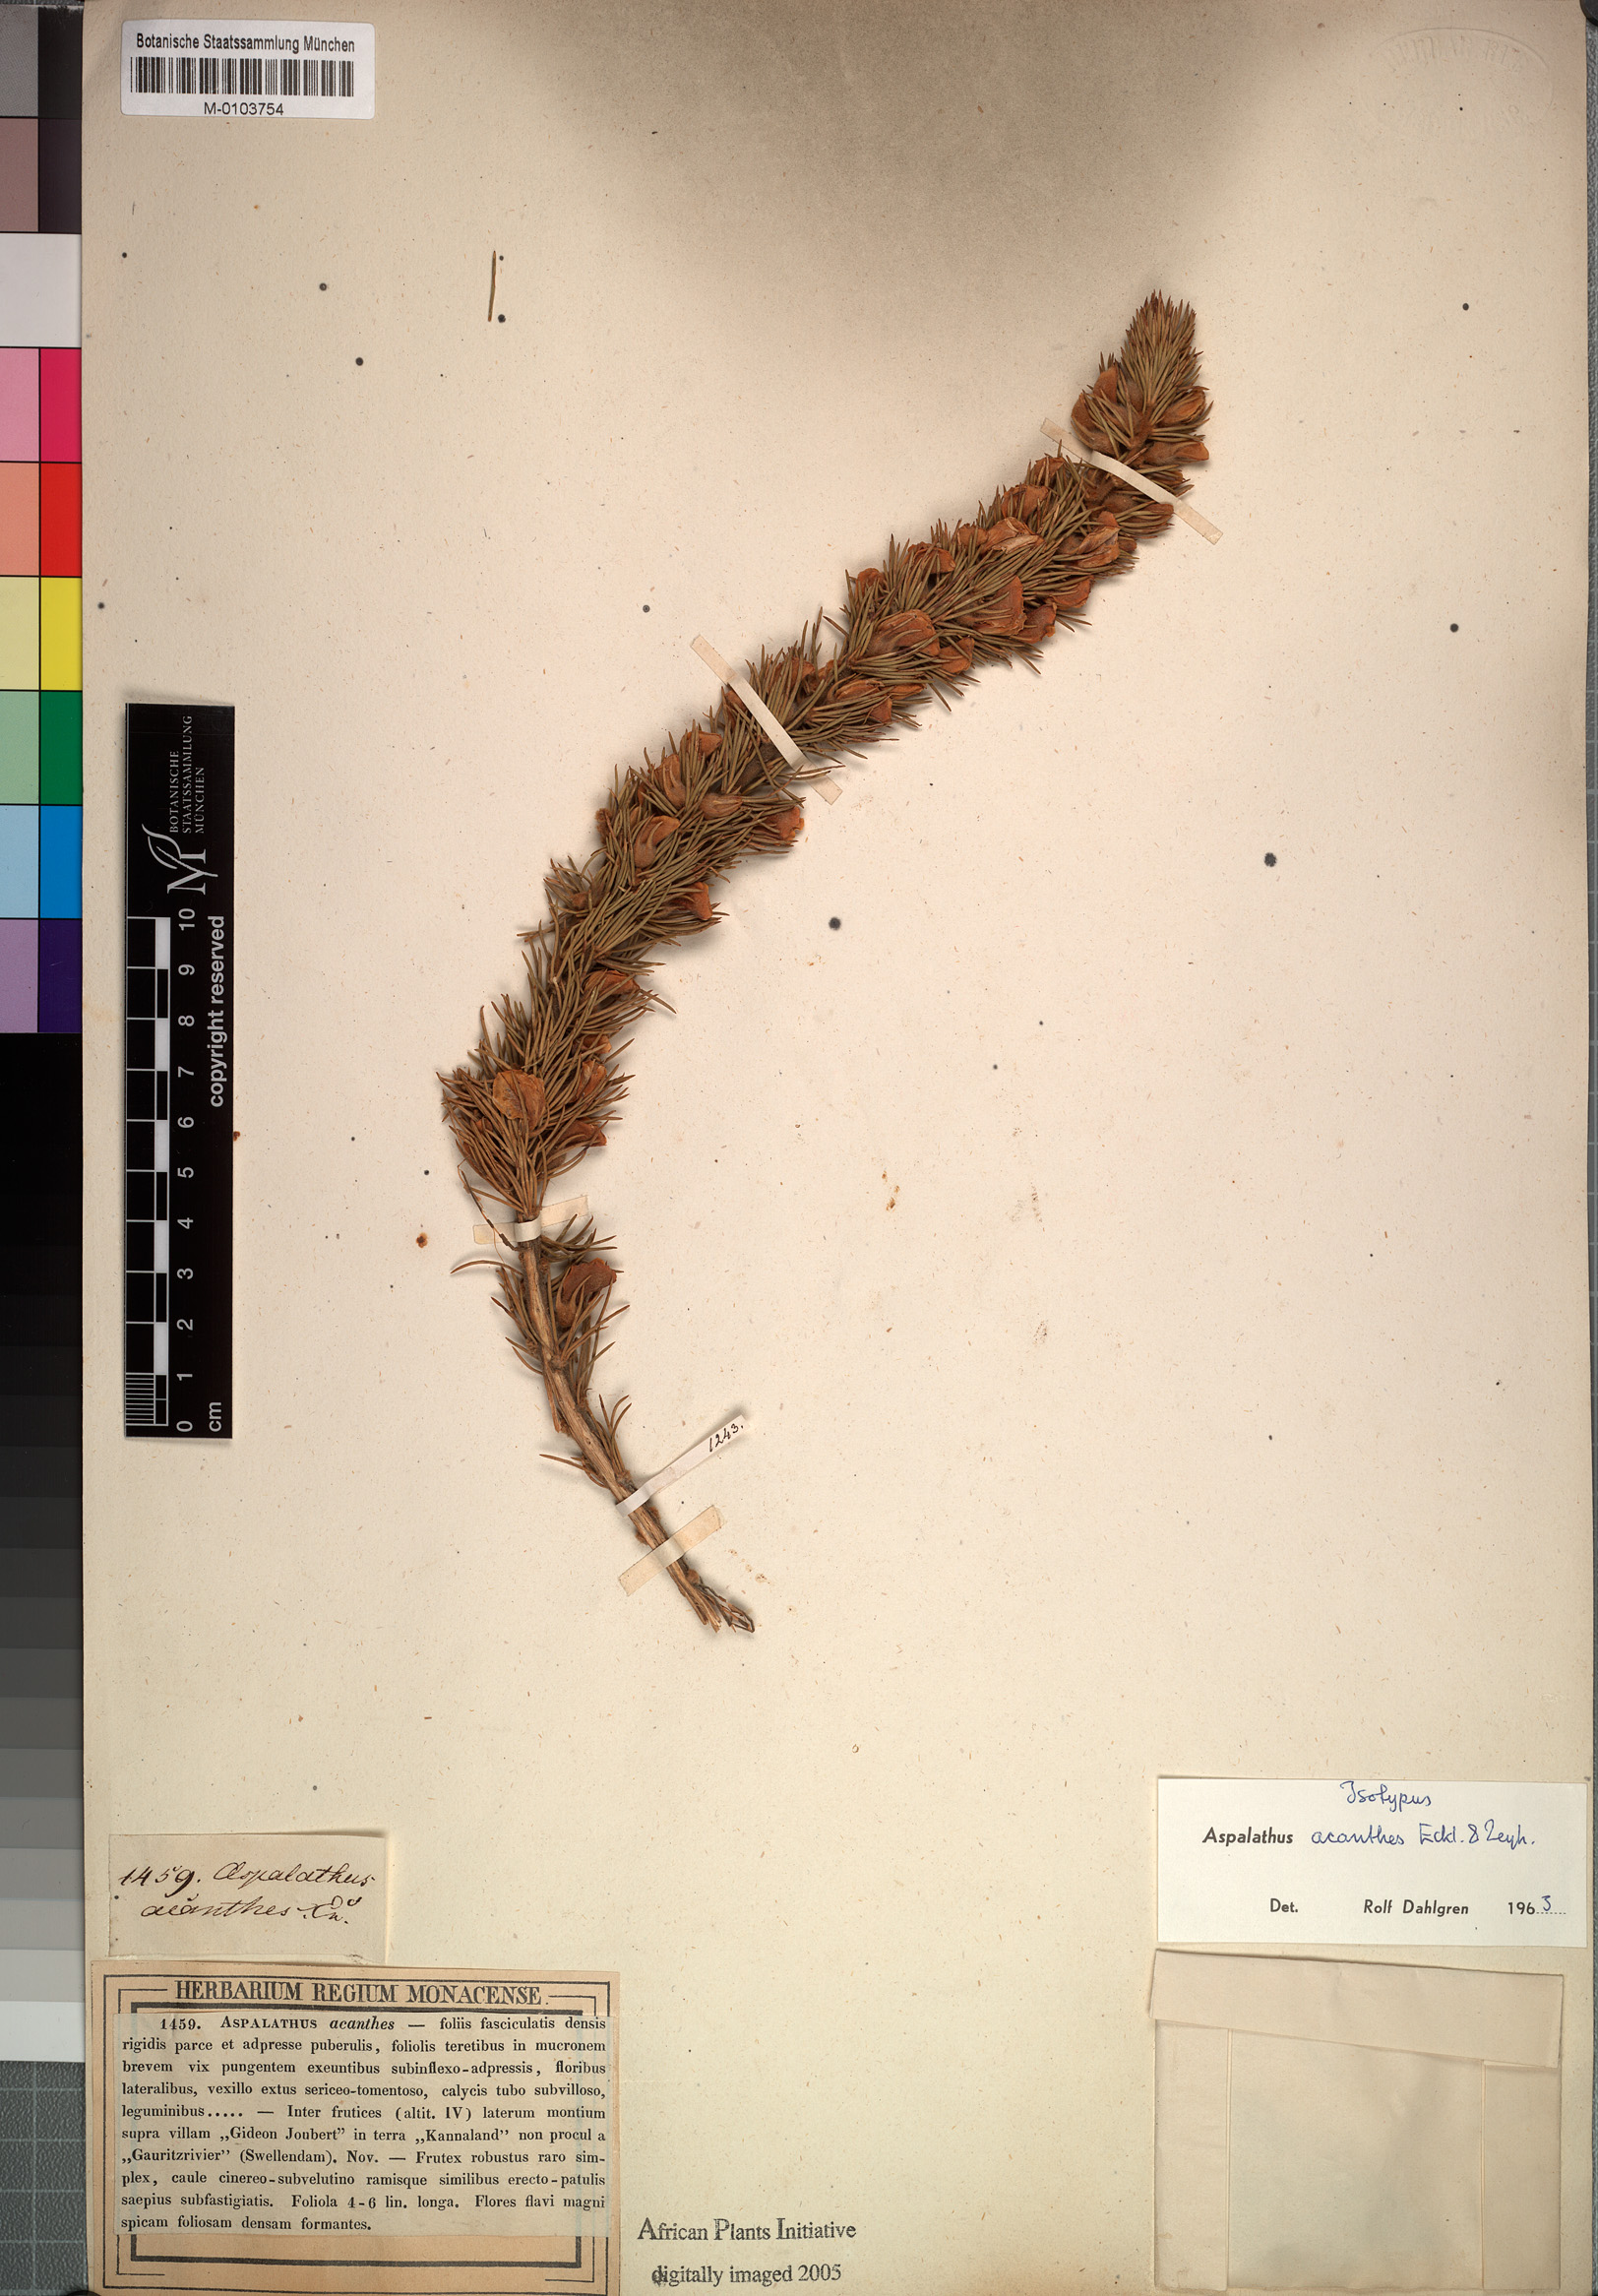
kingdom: Plantae
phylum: Tracheophyta
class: Magnoliopsida
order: Fabales
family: Fabaceae
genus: Aspalathus
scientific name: Aspalathus acanthes
